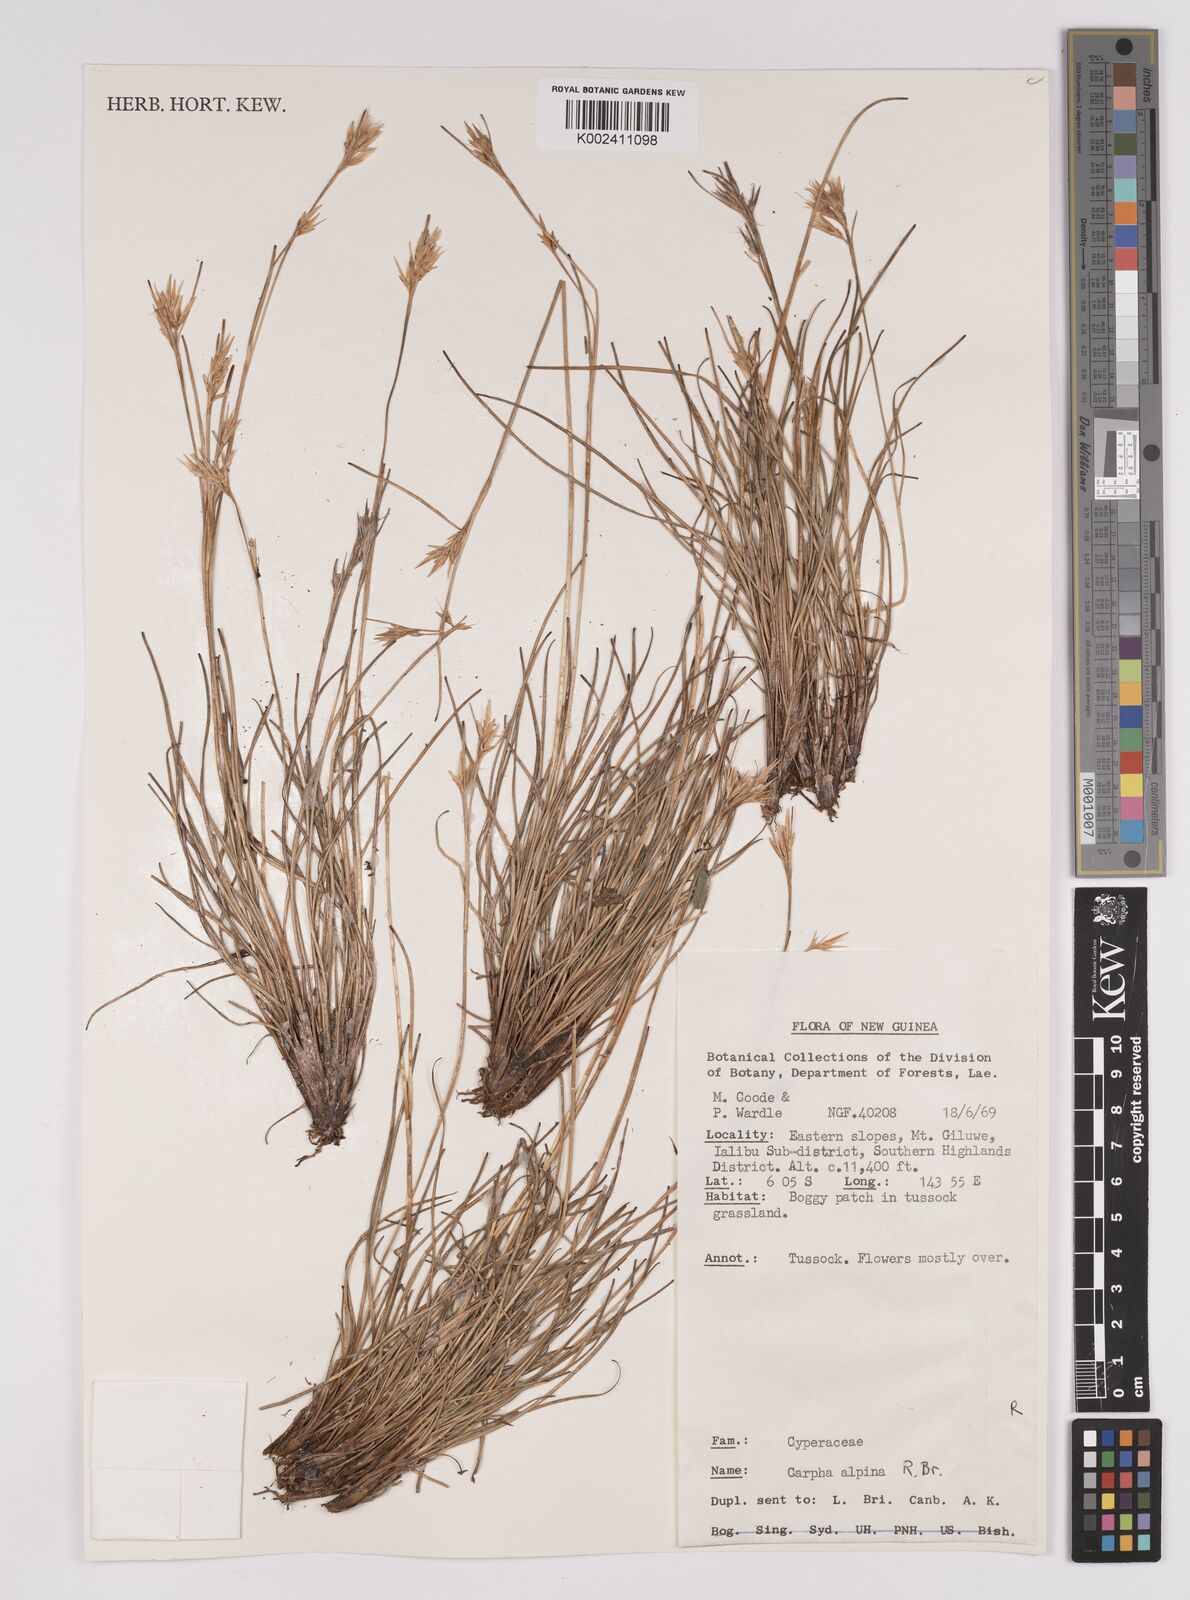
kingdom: Plantae
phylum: Tracheophyta
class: Liliopsida
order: Poales
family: Cyperaceae
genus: Carpha
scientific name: Carpha alpina
